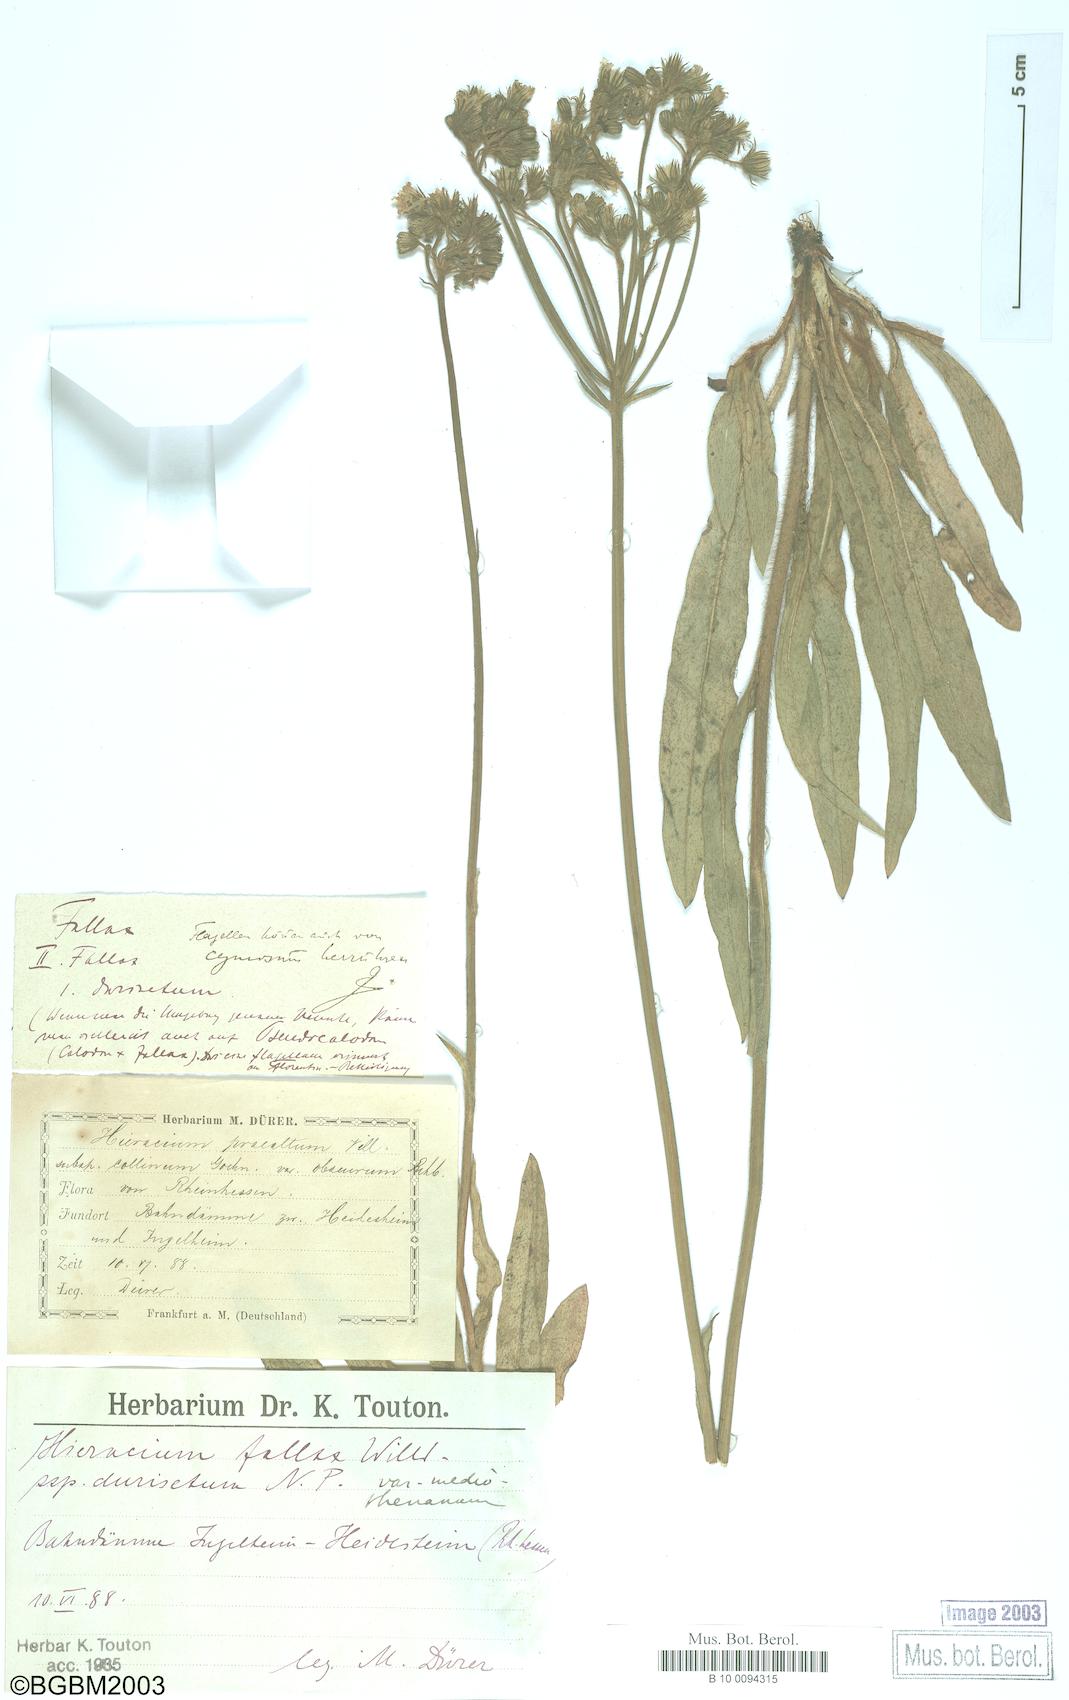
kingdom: Plantae
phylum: Tracheophyta
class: Magnoliopsida
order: Asterales
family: Asteraceae
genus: Hieracium
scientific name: Hieracium fallax
